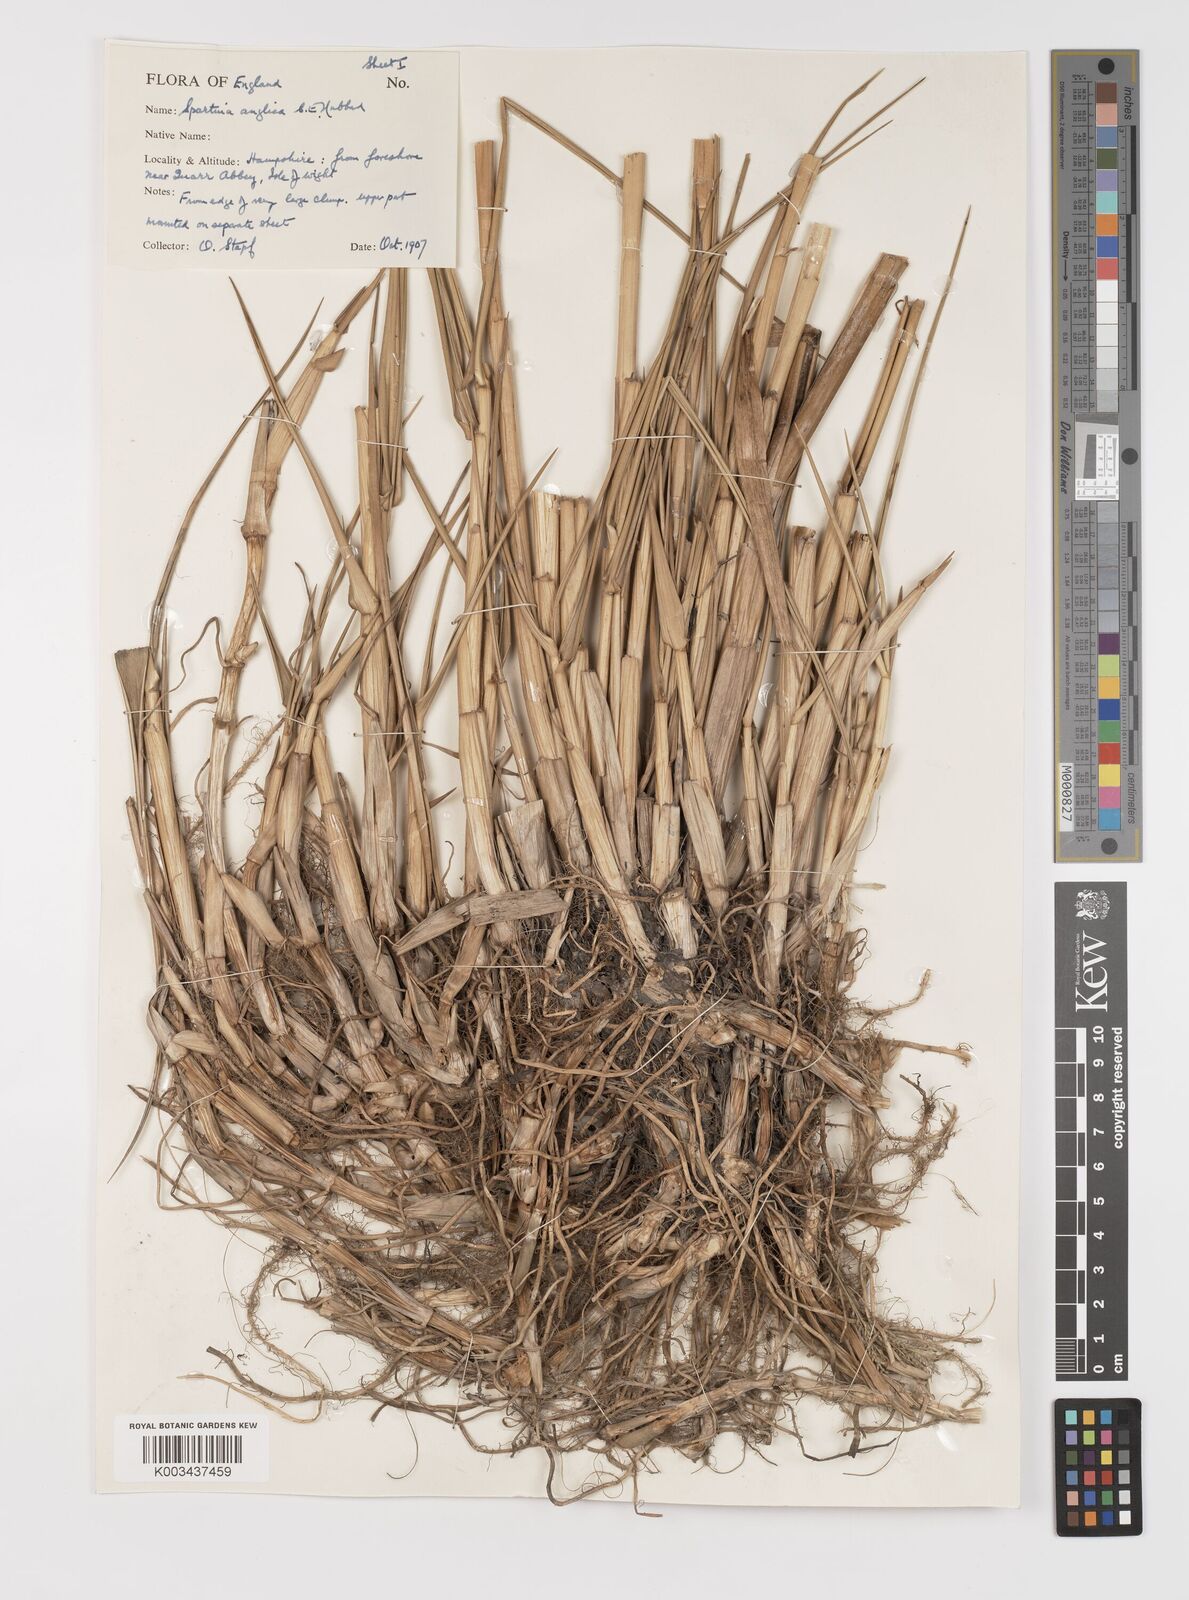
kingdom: Plantae
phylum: Tracheophyta
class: Liliopsida
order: Poales
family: Poaceae
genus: Sporobolus
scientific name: Sporobolus anglicus
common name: English cordgrass
